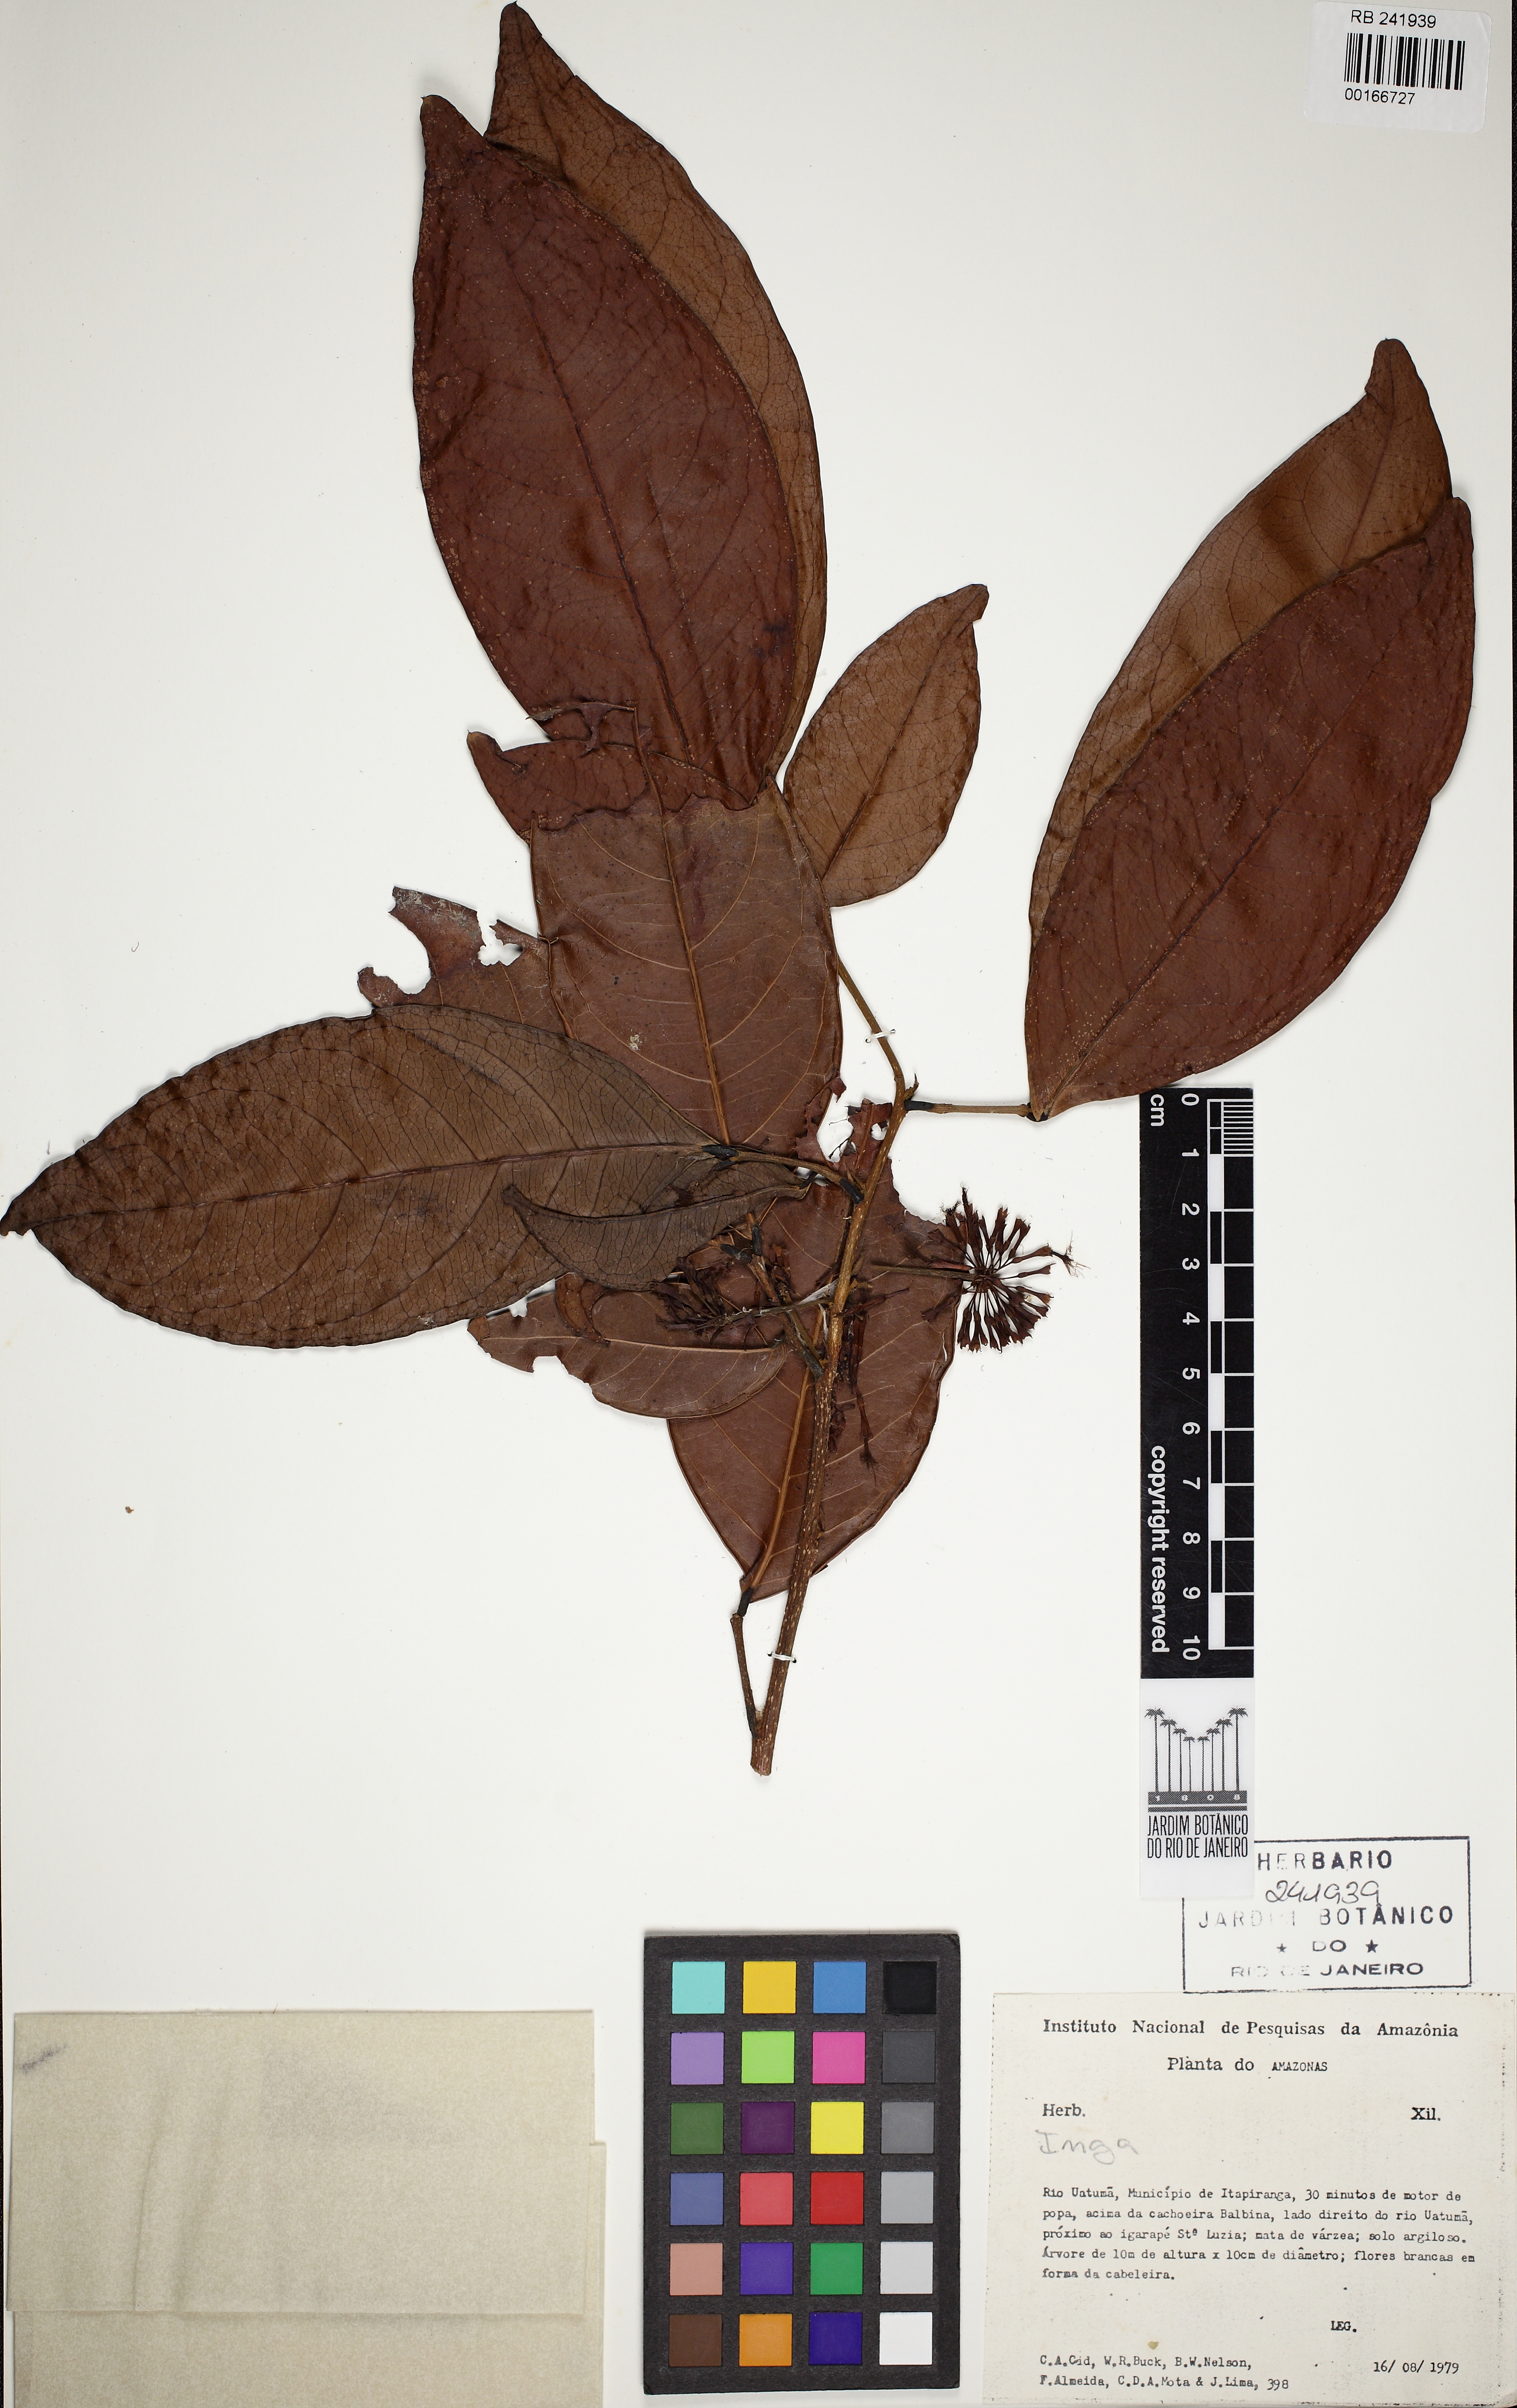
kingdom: Plantae
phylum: Tracheophyta
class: Magnoliopsida
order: Fabales
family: Fabaceae
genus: Inga
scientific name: Inga sertulifera
